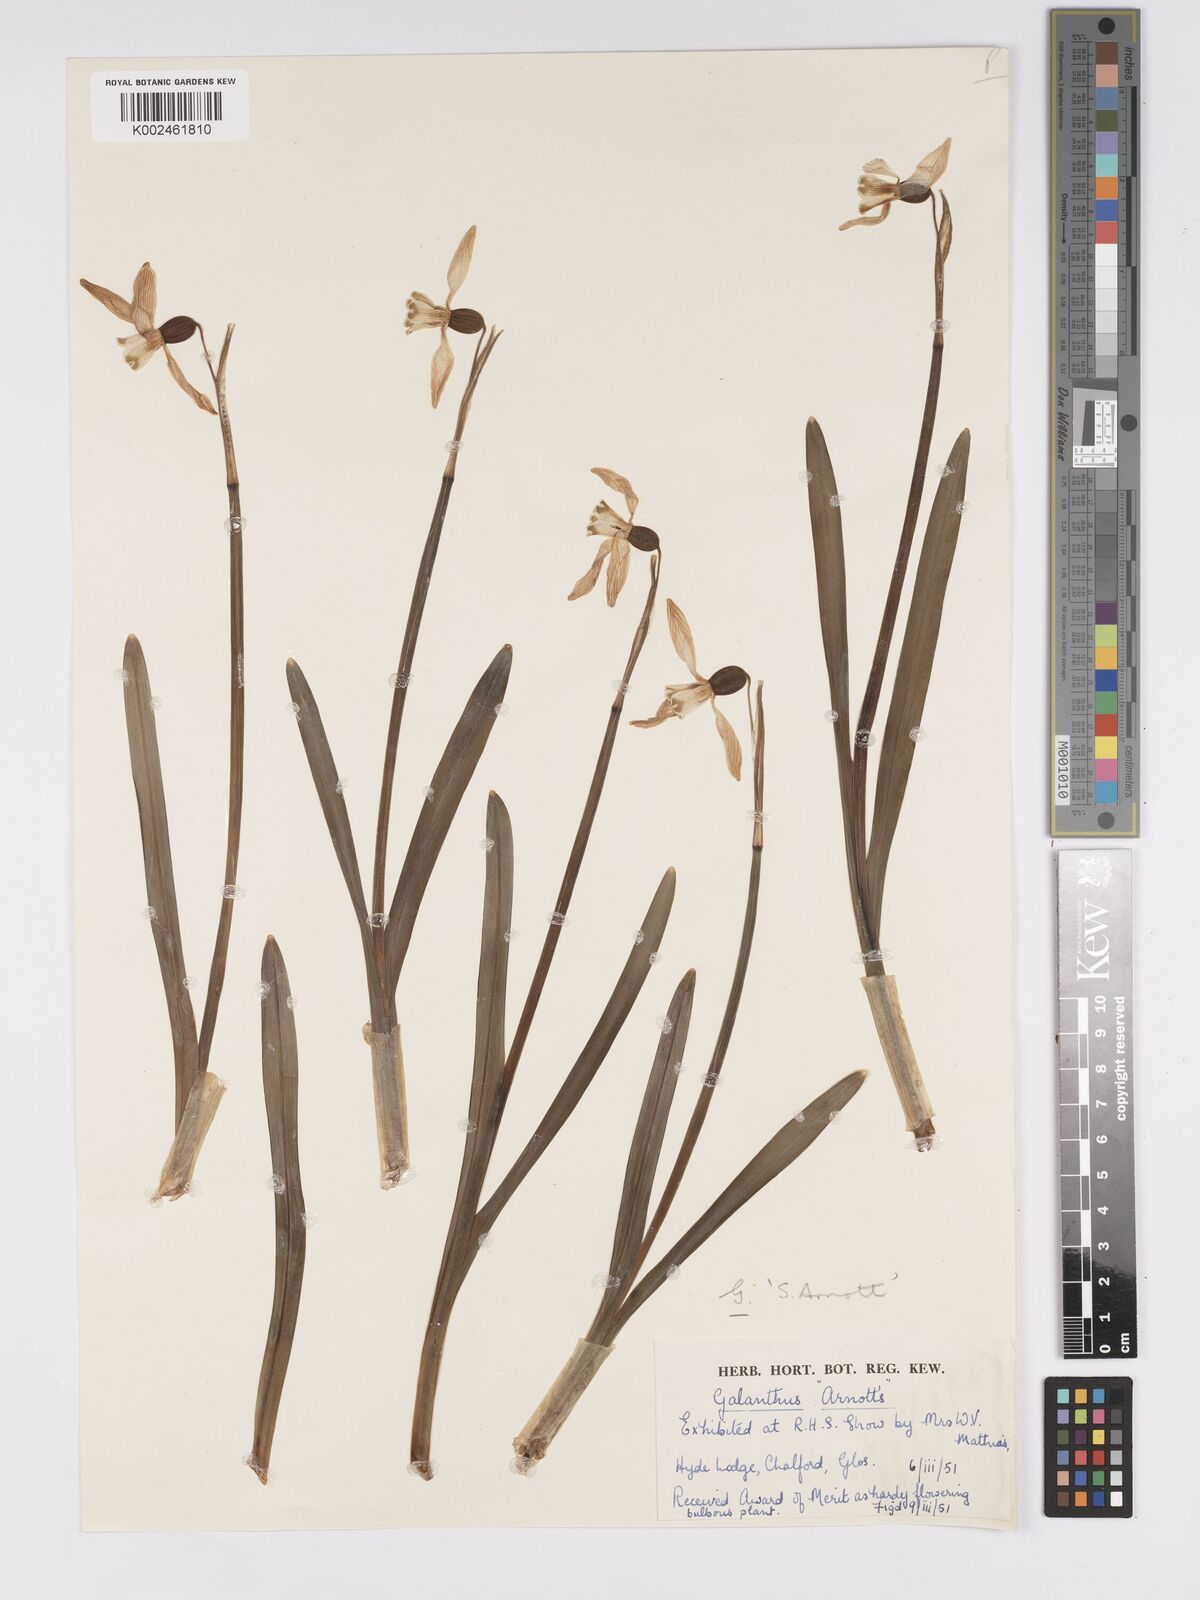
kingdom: Plantae
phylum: Tracheophyta
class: Liliopsida
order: Asparagales
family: Amaryllidaceae
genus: Galanthus
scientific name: Galanthus
